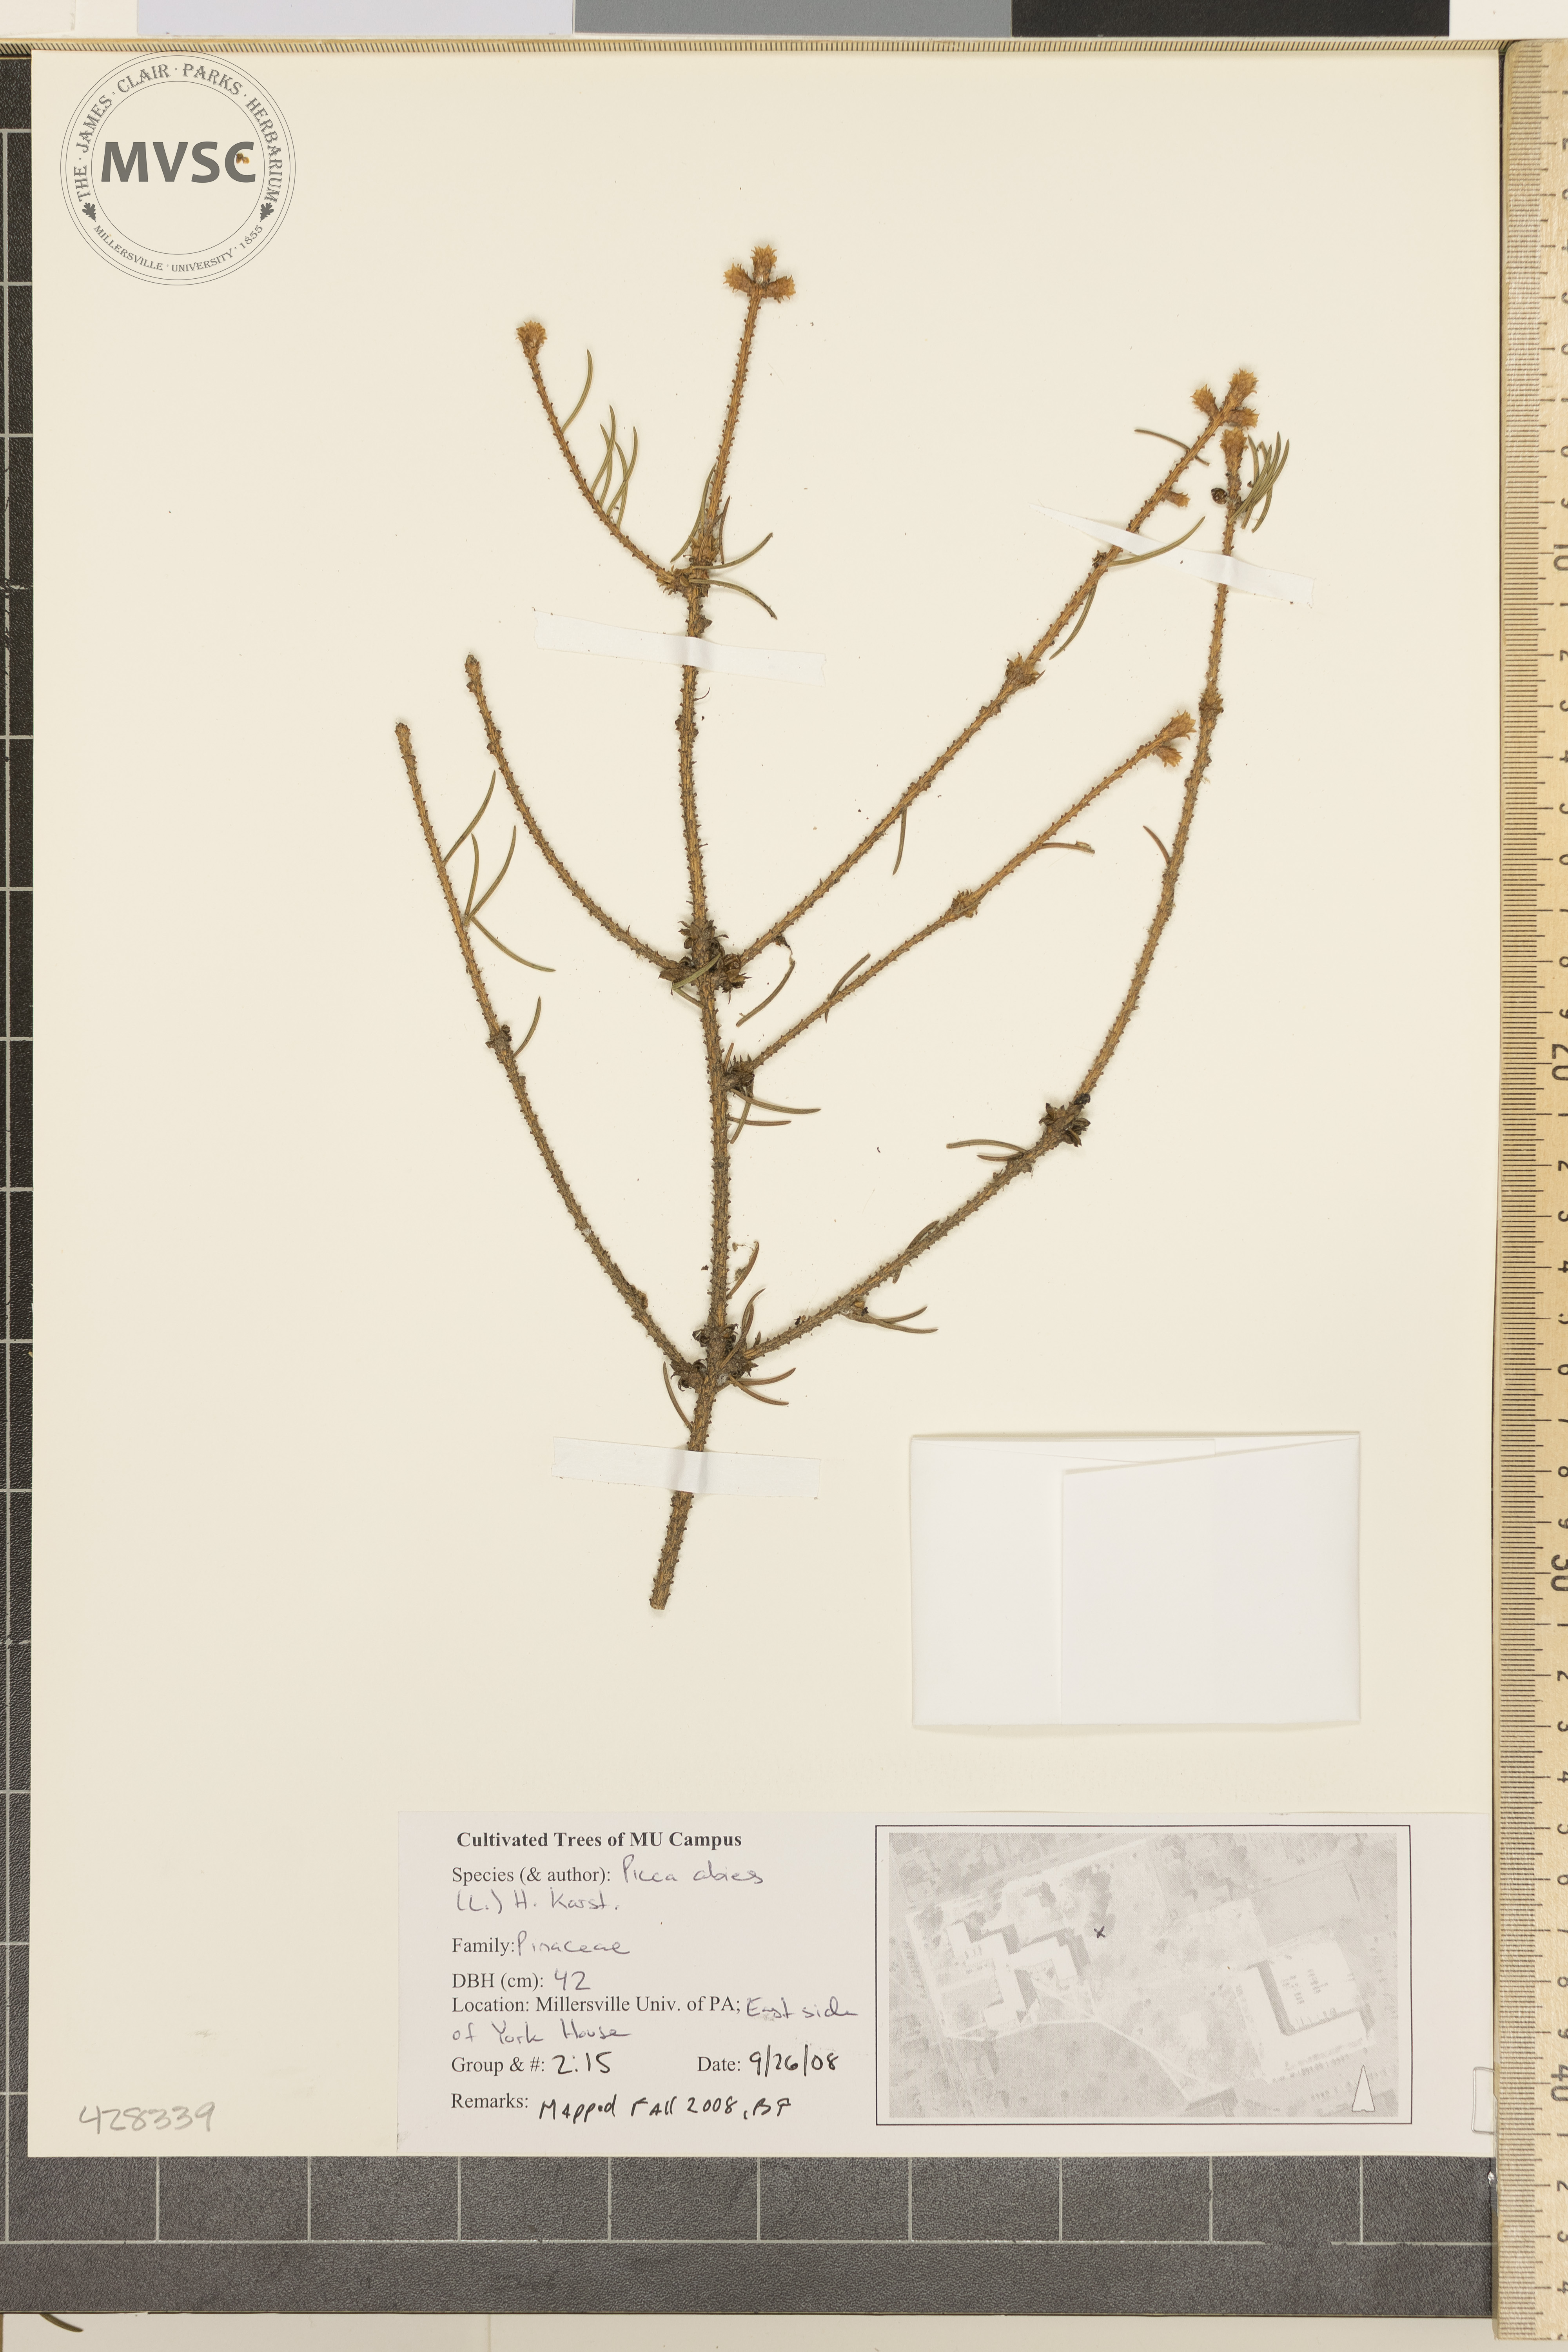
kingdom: Plantae
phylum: Tracheophyta
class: Pinopsida
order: Pinales
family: Pinaceae
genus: Picea
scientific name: Picea abies
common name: Norway Spruce
